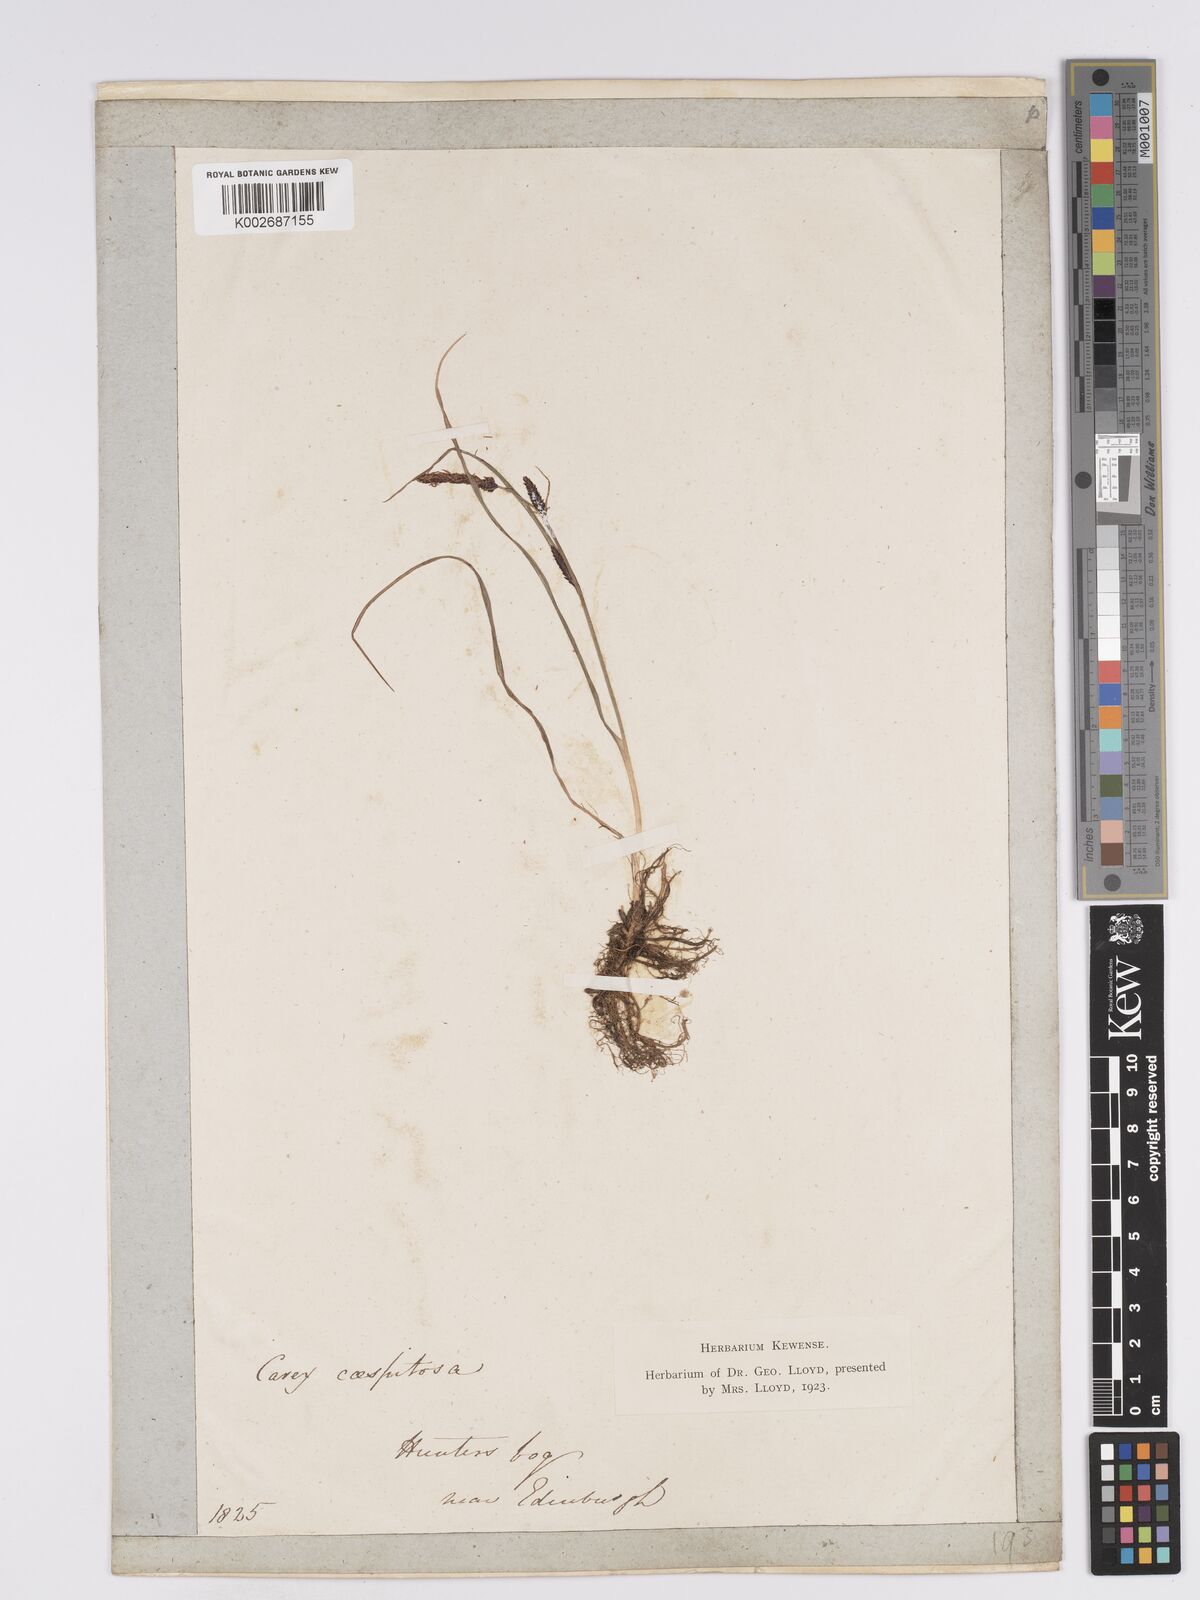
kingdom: Plantae
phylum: Tracheophyta
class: Liliopsida
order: Poales
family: Cyperaceae
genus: Carex
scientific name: Carex nigra
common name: Common sedge
